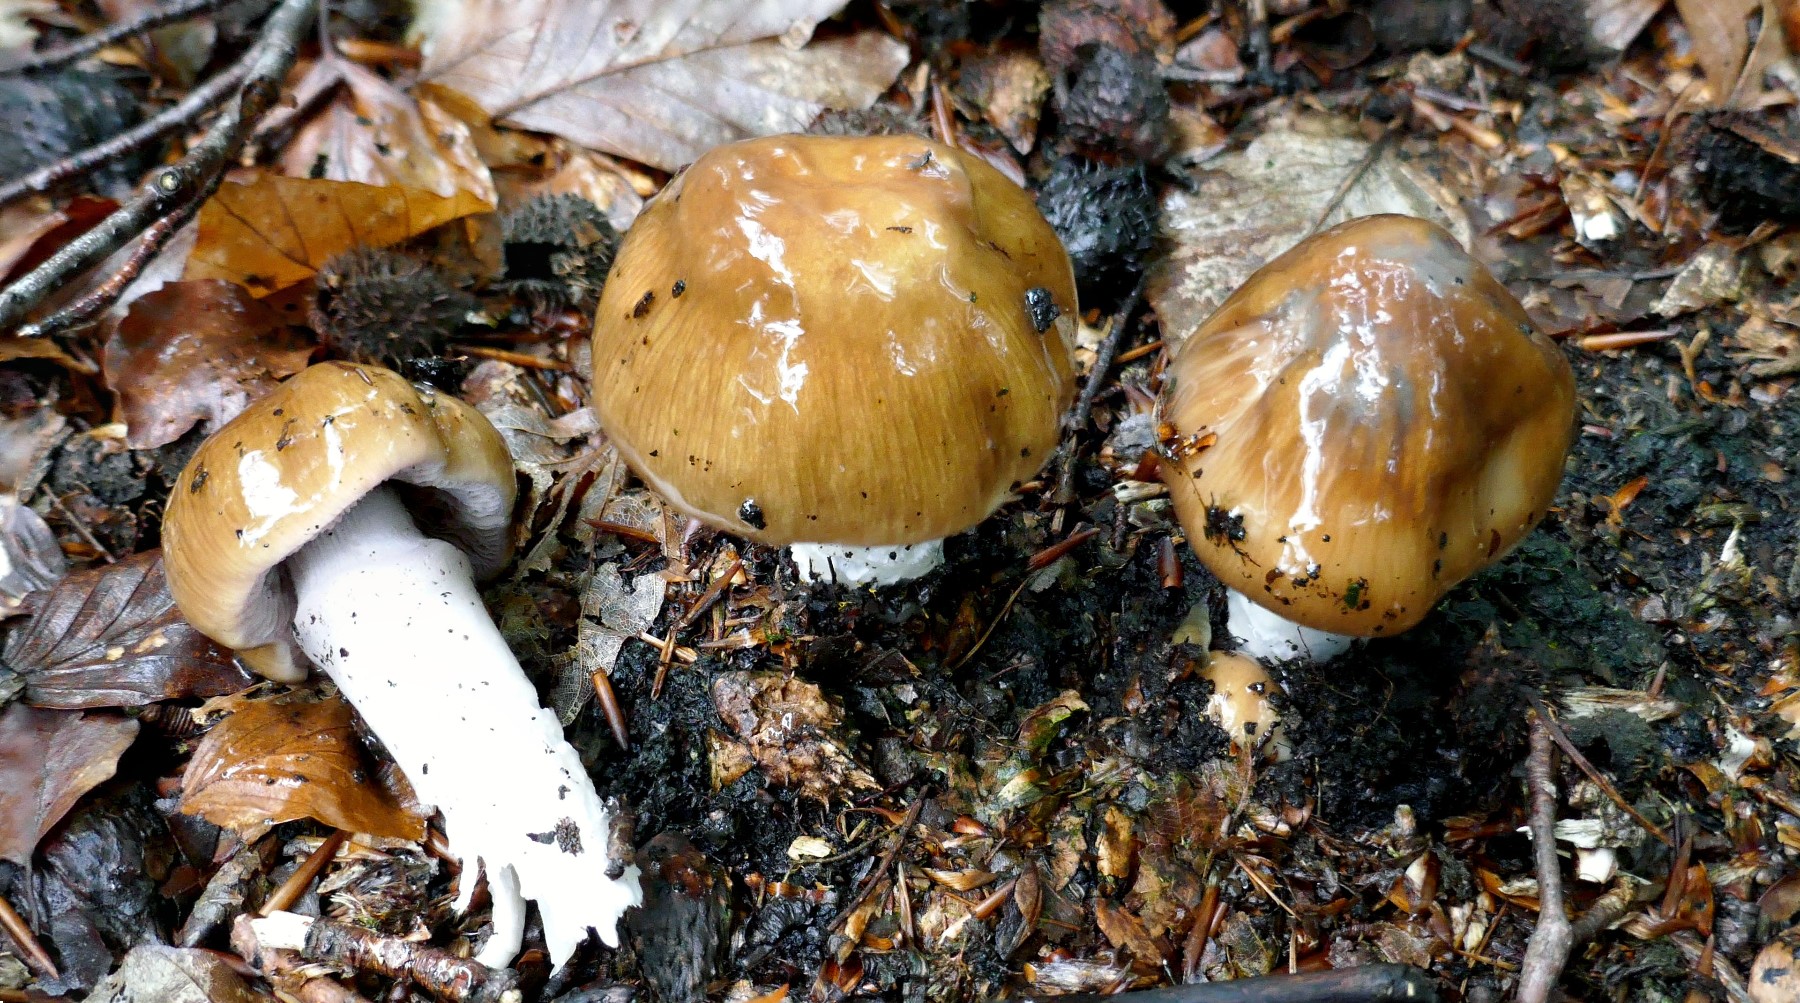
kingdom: Fungi
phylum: Basidiomycota
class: Agaricomycetes
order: Agaricales
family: Cortinariaceae
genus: Cortinarius
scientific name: Cortinarius elatior
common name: høj slørhat
